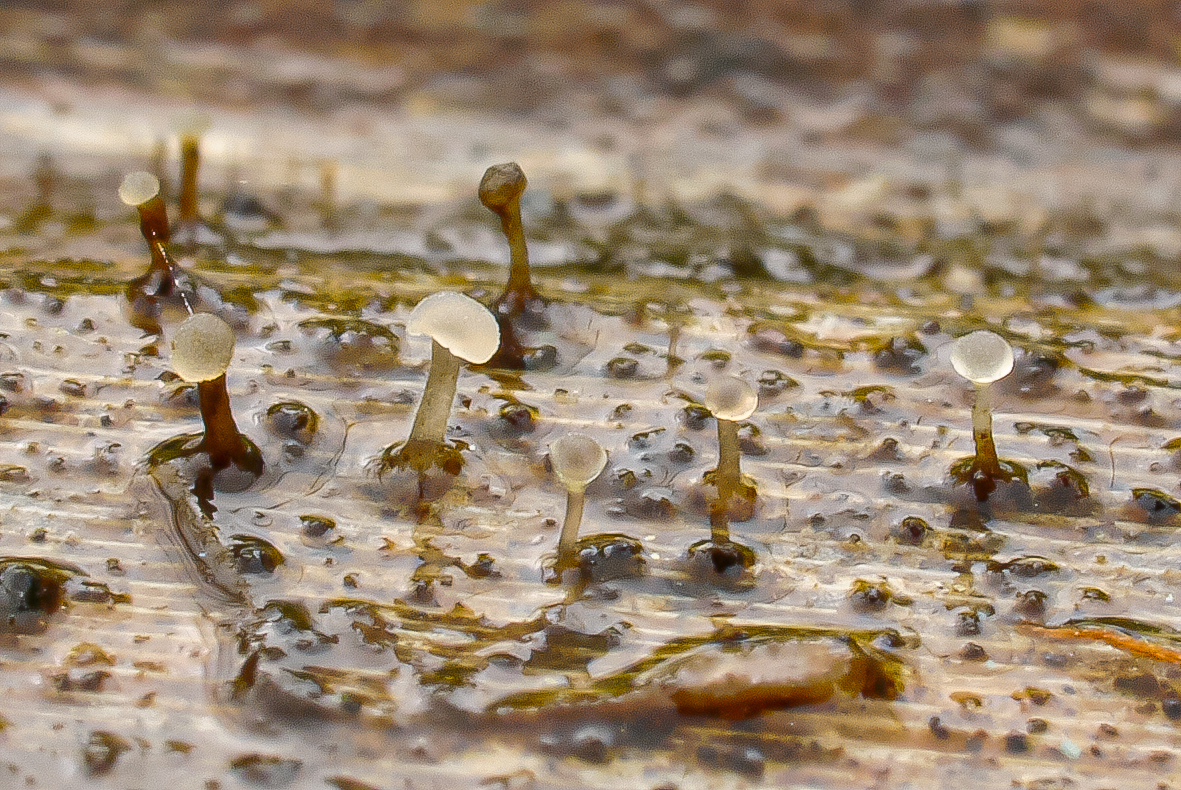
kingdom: Fungi
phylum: Basidiomycota
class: Agaricomycetes
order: Agaricales
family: Typhulaceae
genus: Typhula
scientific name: Typhula
